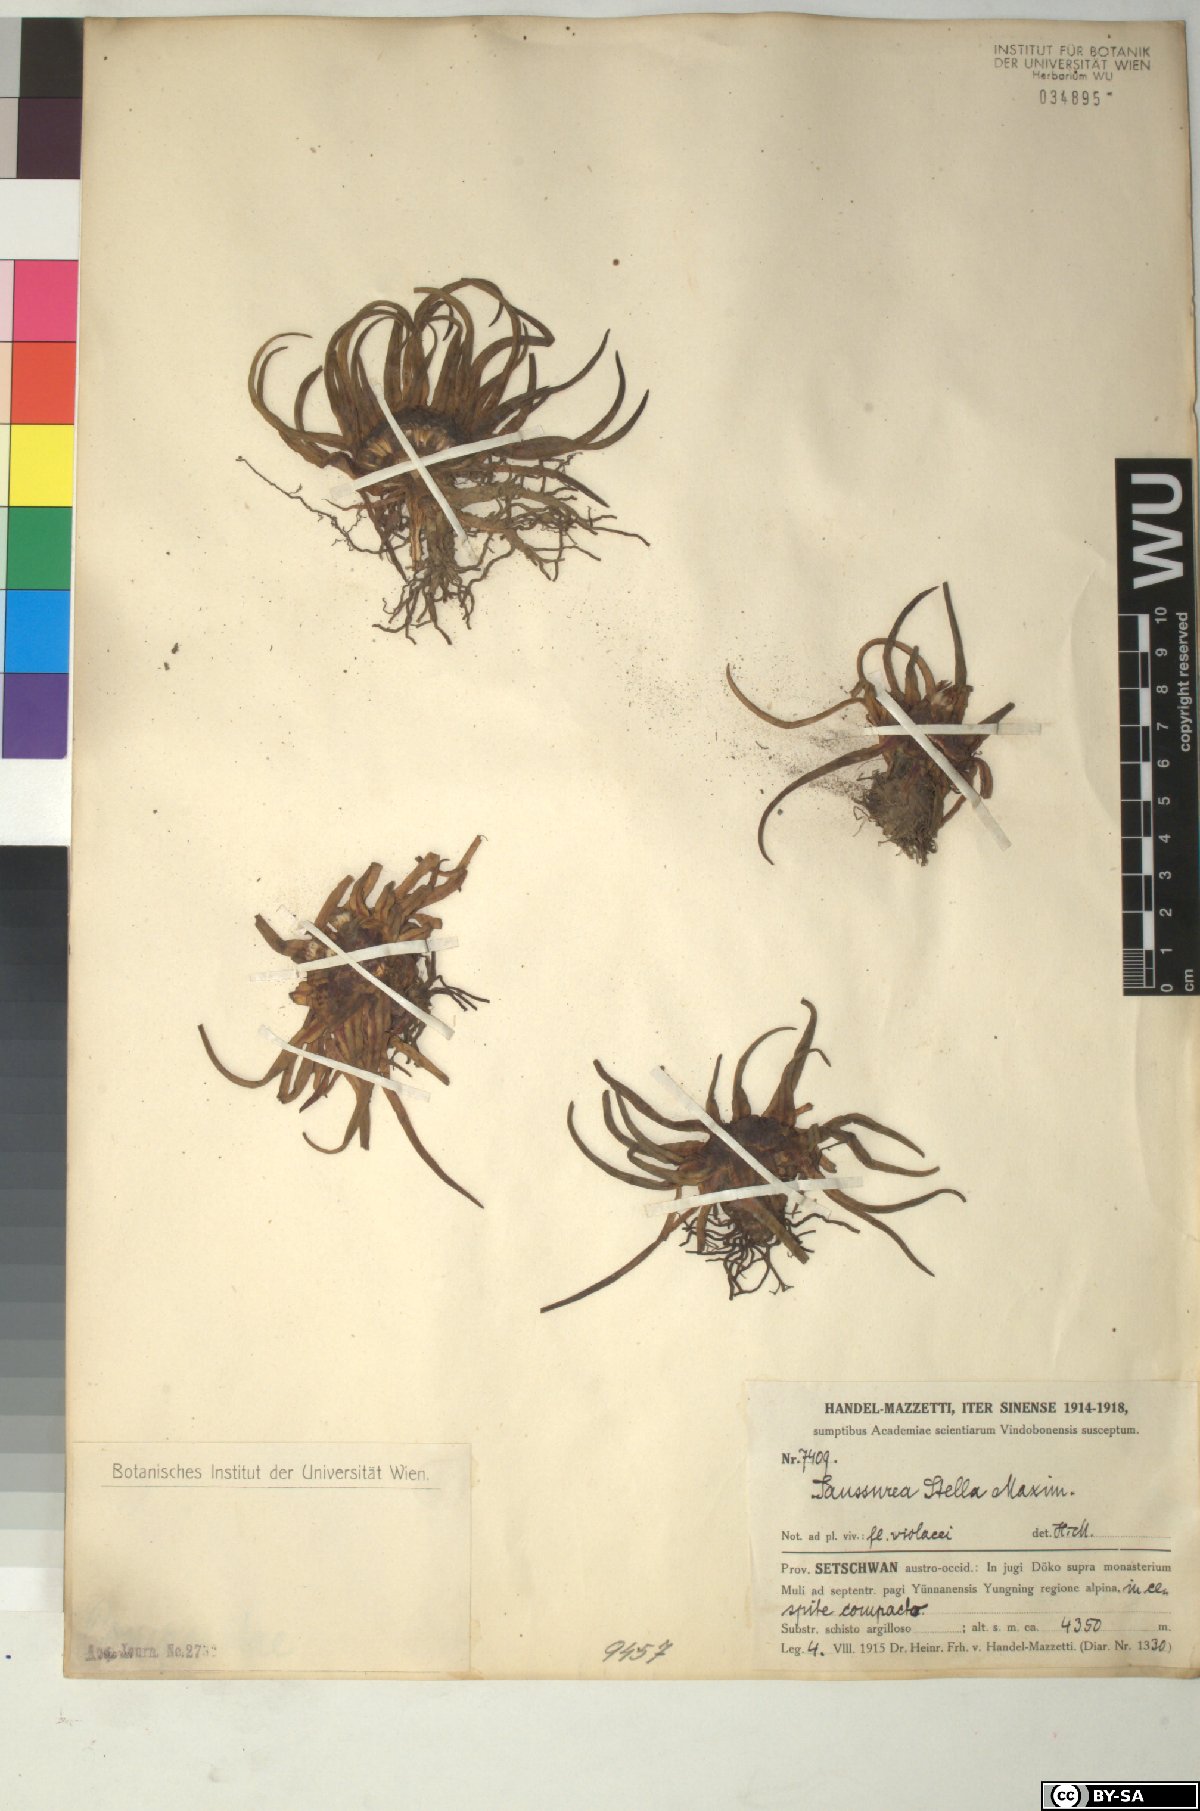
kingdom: Plantae
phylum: Tracheophyta
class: Magnoliopsida
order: Asterales
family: Asteraceae
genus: Saussurea
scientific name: Saussurea stella
